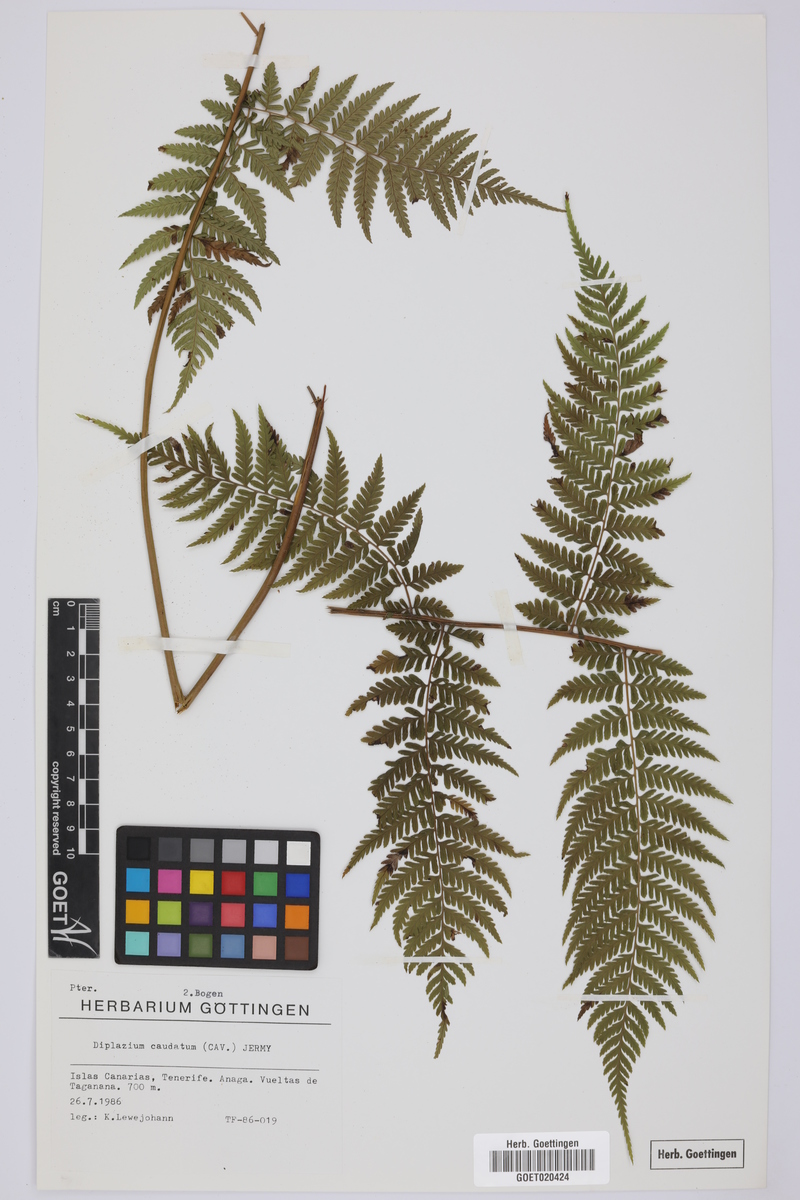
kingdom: Plantae
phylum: Tracheophyta
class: Polypodiopsida
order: Polypodiales
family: Athyriaceae
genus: Diplazium
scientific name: Diplazium caudatum
